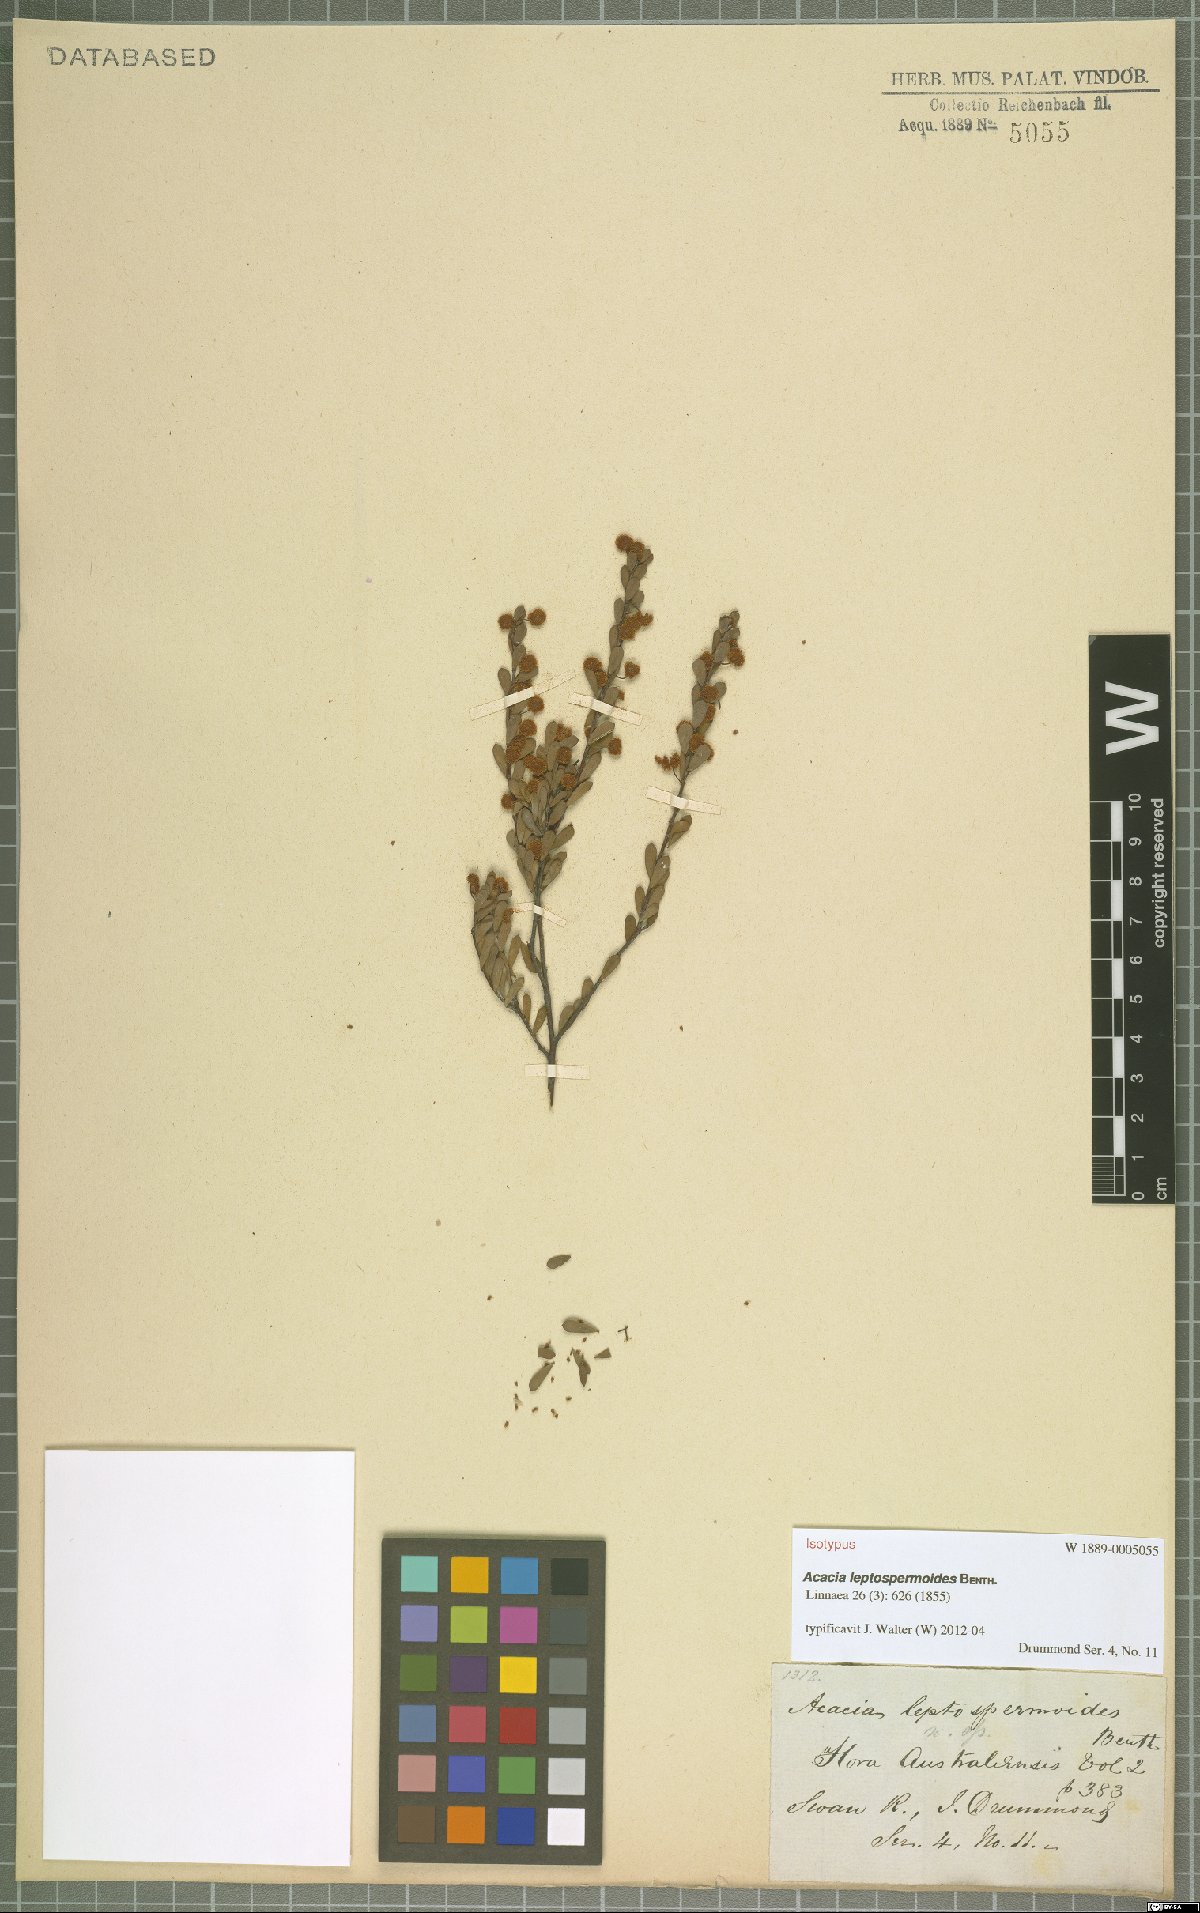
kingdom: Plantae
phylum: Tracheophyta
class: Magnoliopsida
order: Fabales
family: Fabaceae
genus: Acacia
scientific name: Acacia leptospermoides
